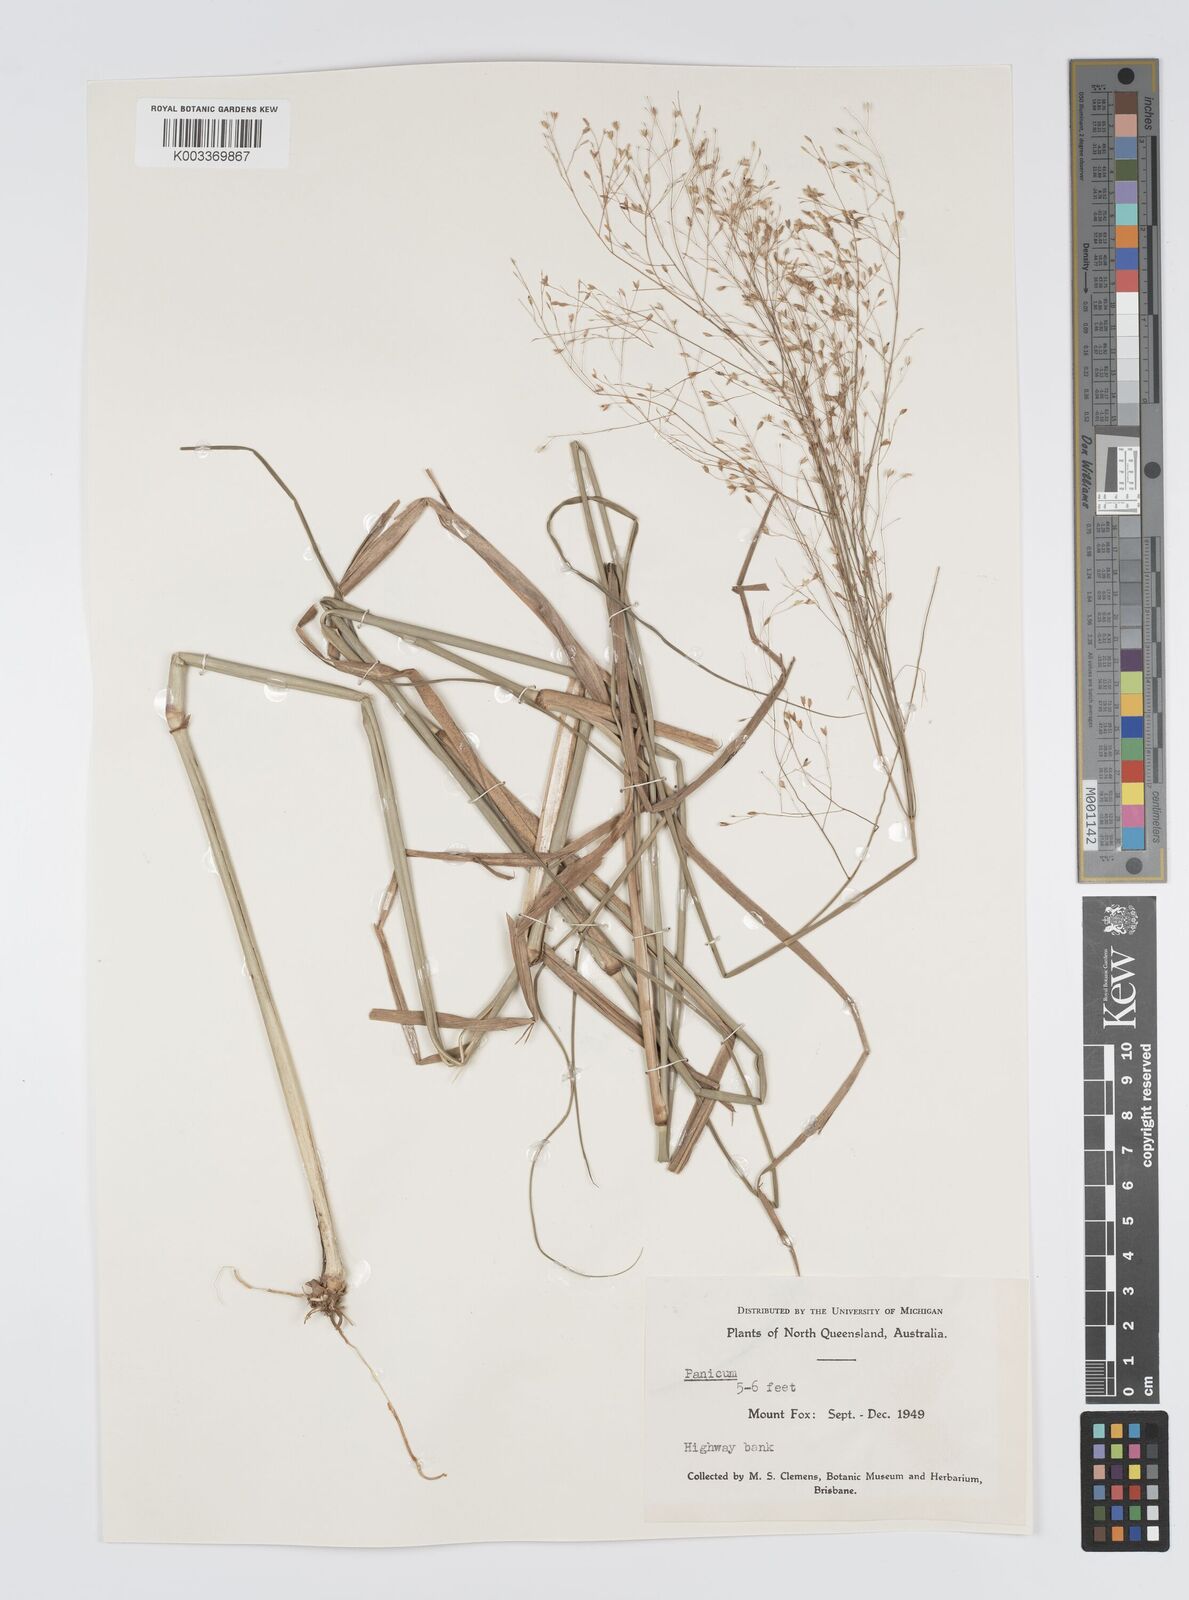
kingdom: Plantae
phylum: Tracheophyta
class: Liliopsida
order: Poales
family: Poaceae
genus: Panicum
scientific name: Panicum mitchellii
